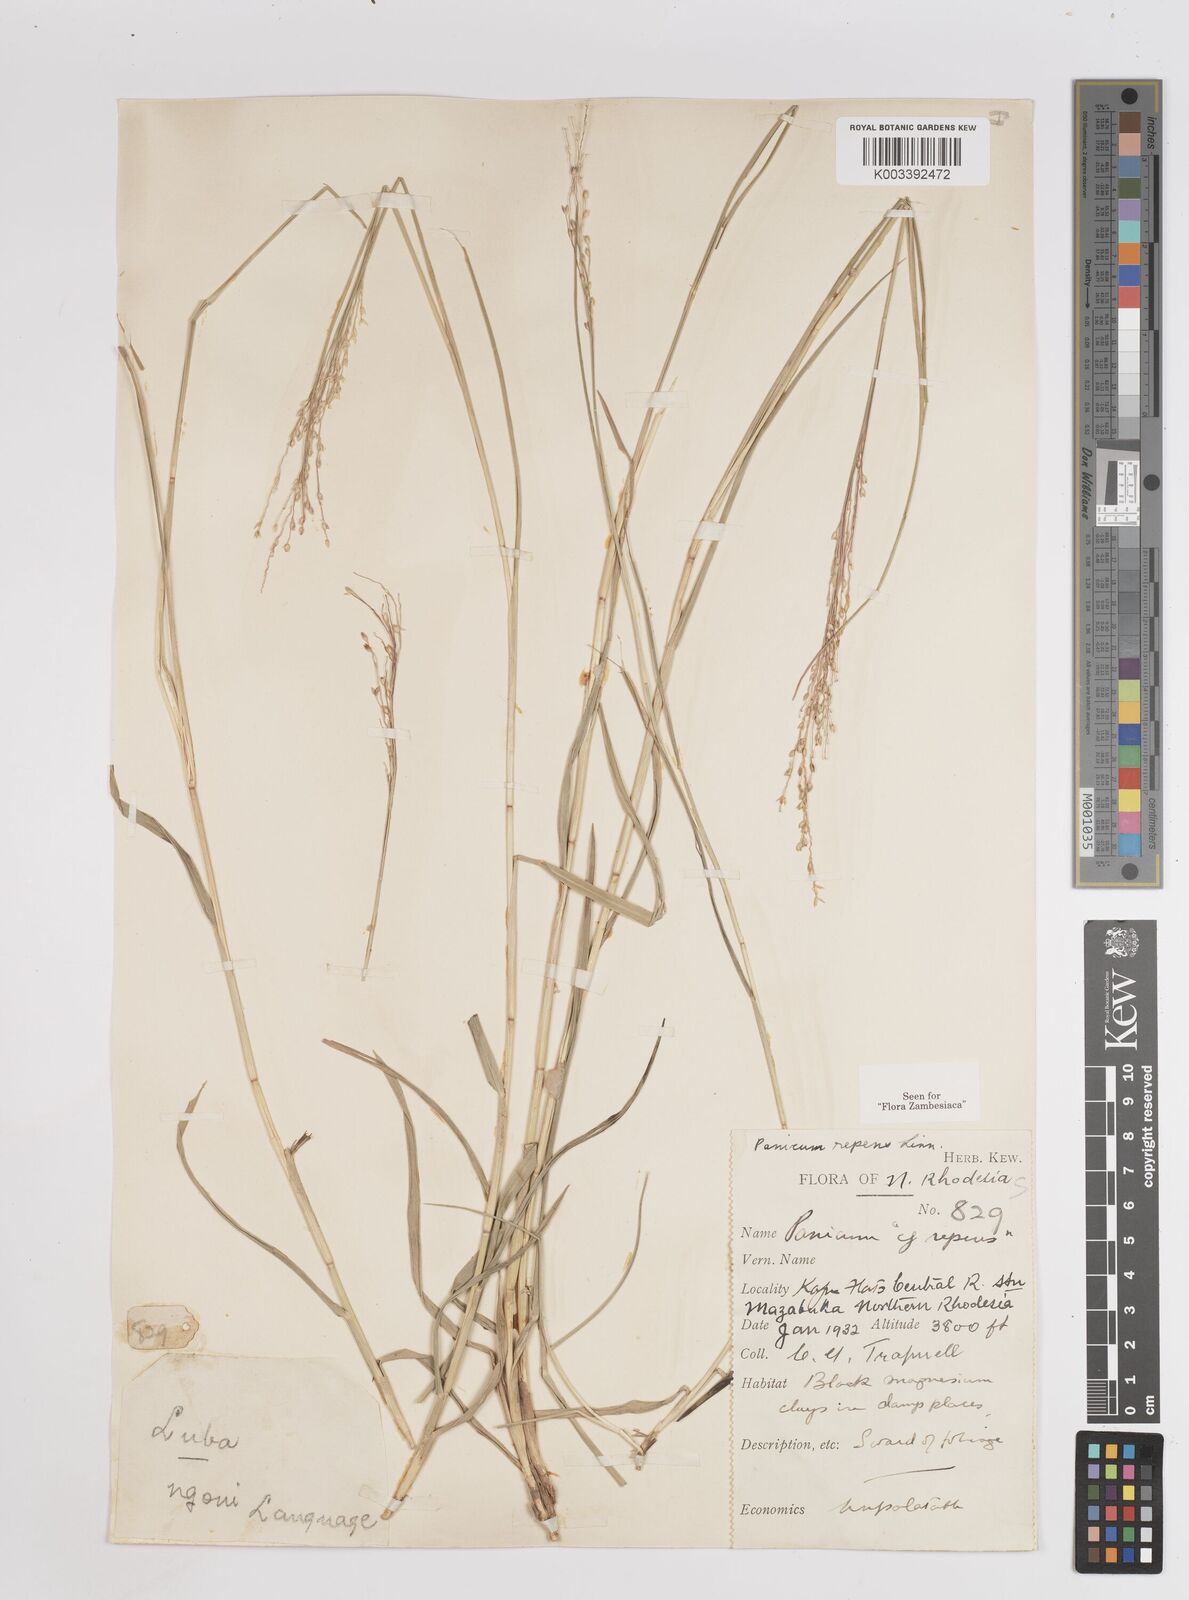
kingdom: Plantae
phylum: Tracheophyta
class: Liliopsida
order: Poales
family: Poaceae
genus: Panicum
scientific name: Panicum repens
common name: Torpedo grass
